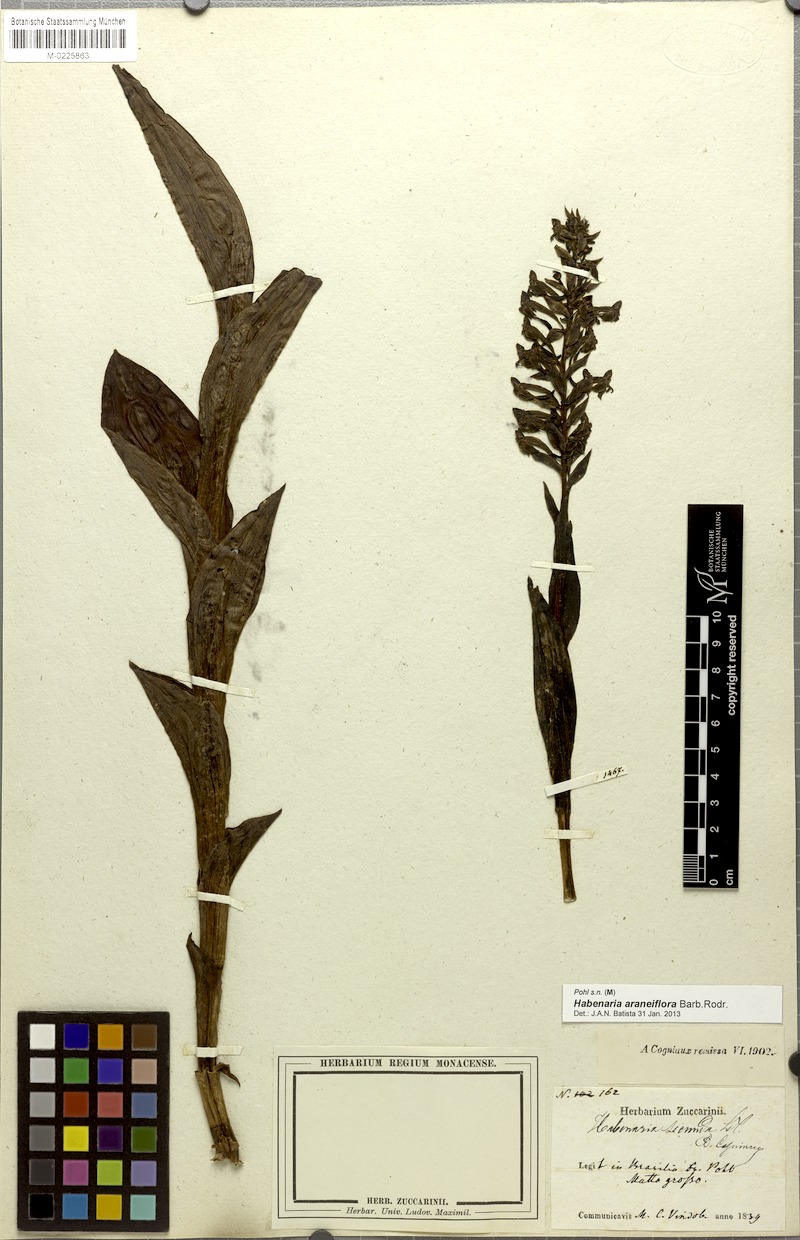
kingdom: Plantae
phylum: Tracheophyta
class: Liliopsida
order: Asparagales
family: Orchidaceae
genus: Habenaria
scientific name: Habenaria araneiflora
